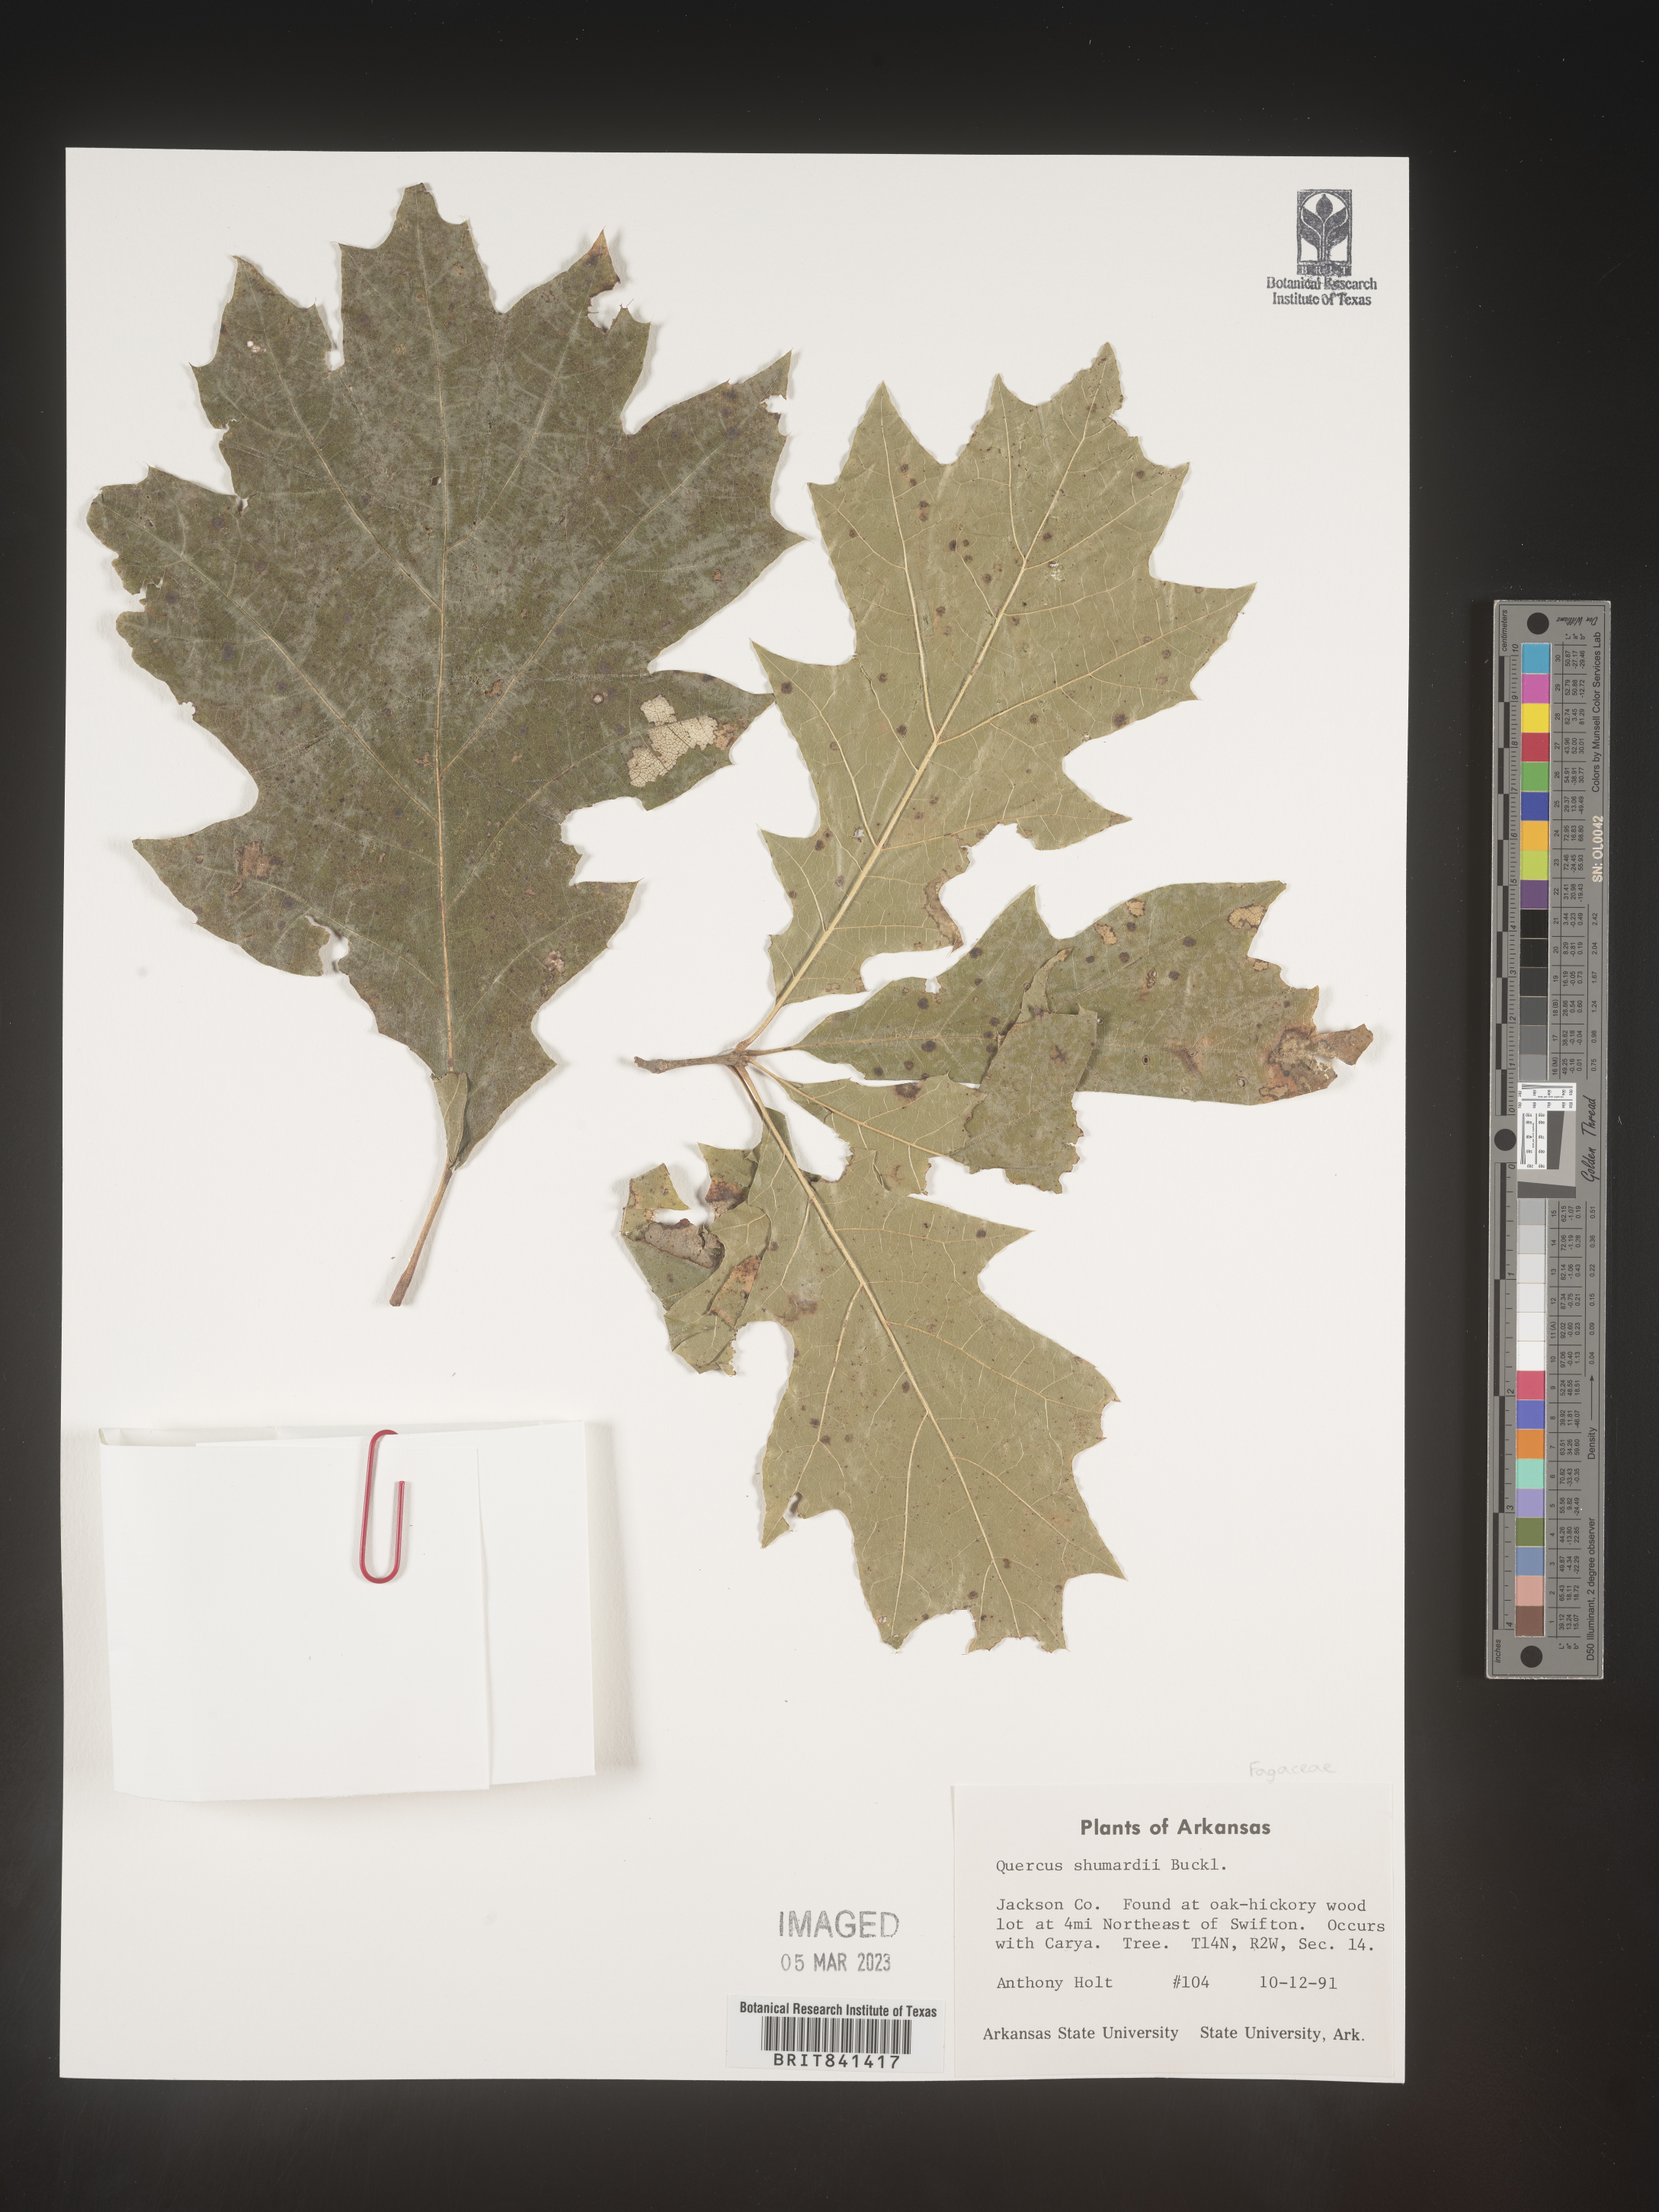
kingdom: Plantae
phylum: Tracheophyta
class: Magnoliopsida
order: Fagales
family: Fagaceae
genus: Quercus
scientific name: Quercus shumardii
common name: Shumard oak
